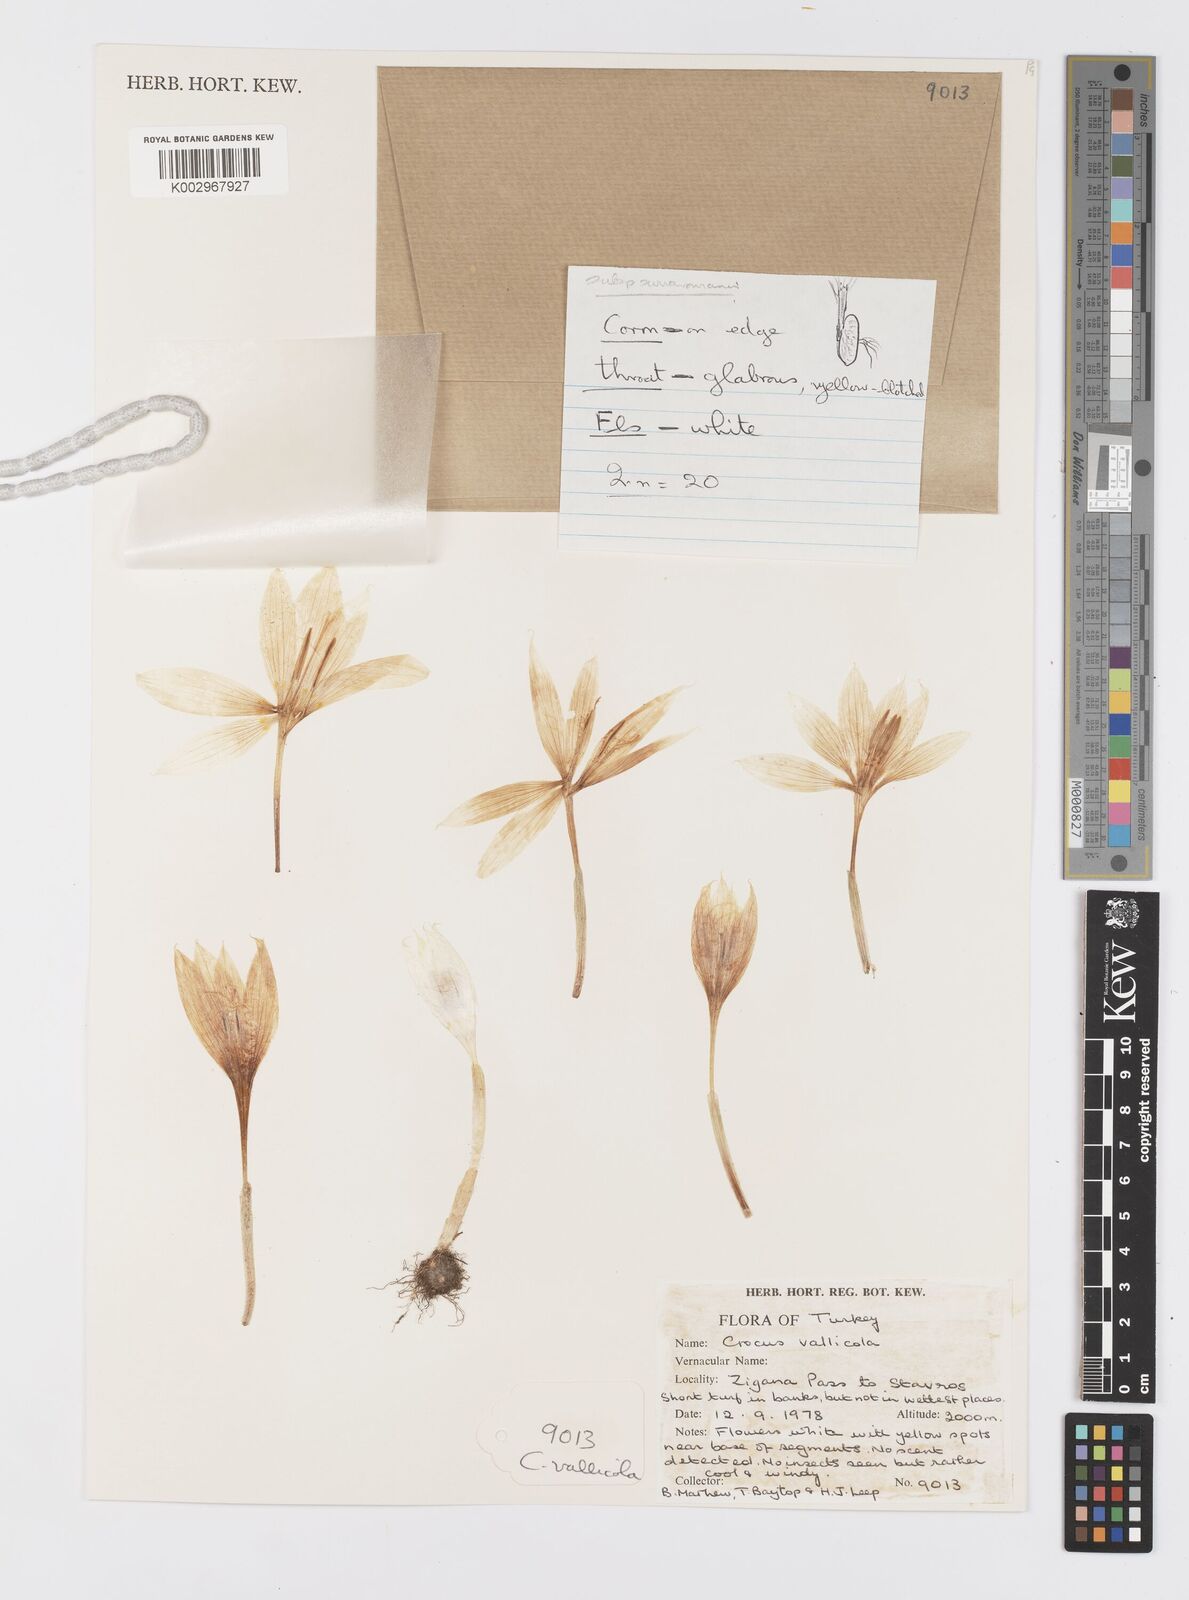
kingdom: Plantae
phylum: Tracheophyta
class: Liliopsida
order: Asparagales
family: Iridaceae
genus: Crocus
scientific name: Crocus vallicola
